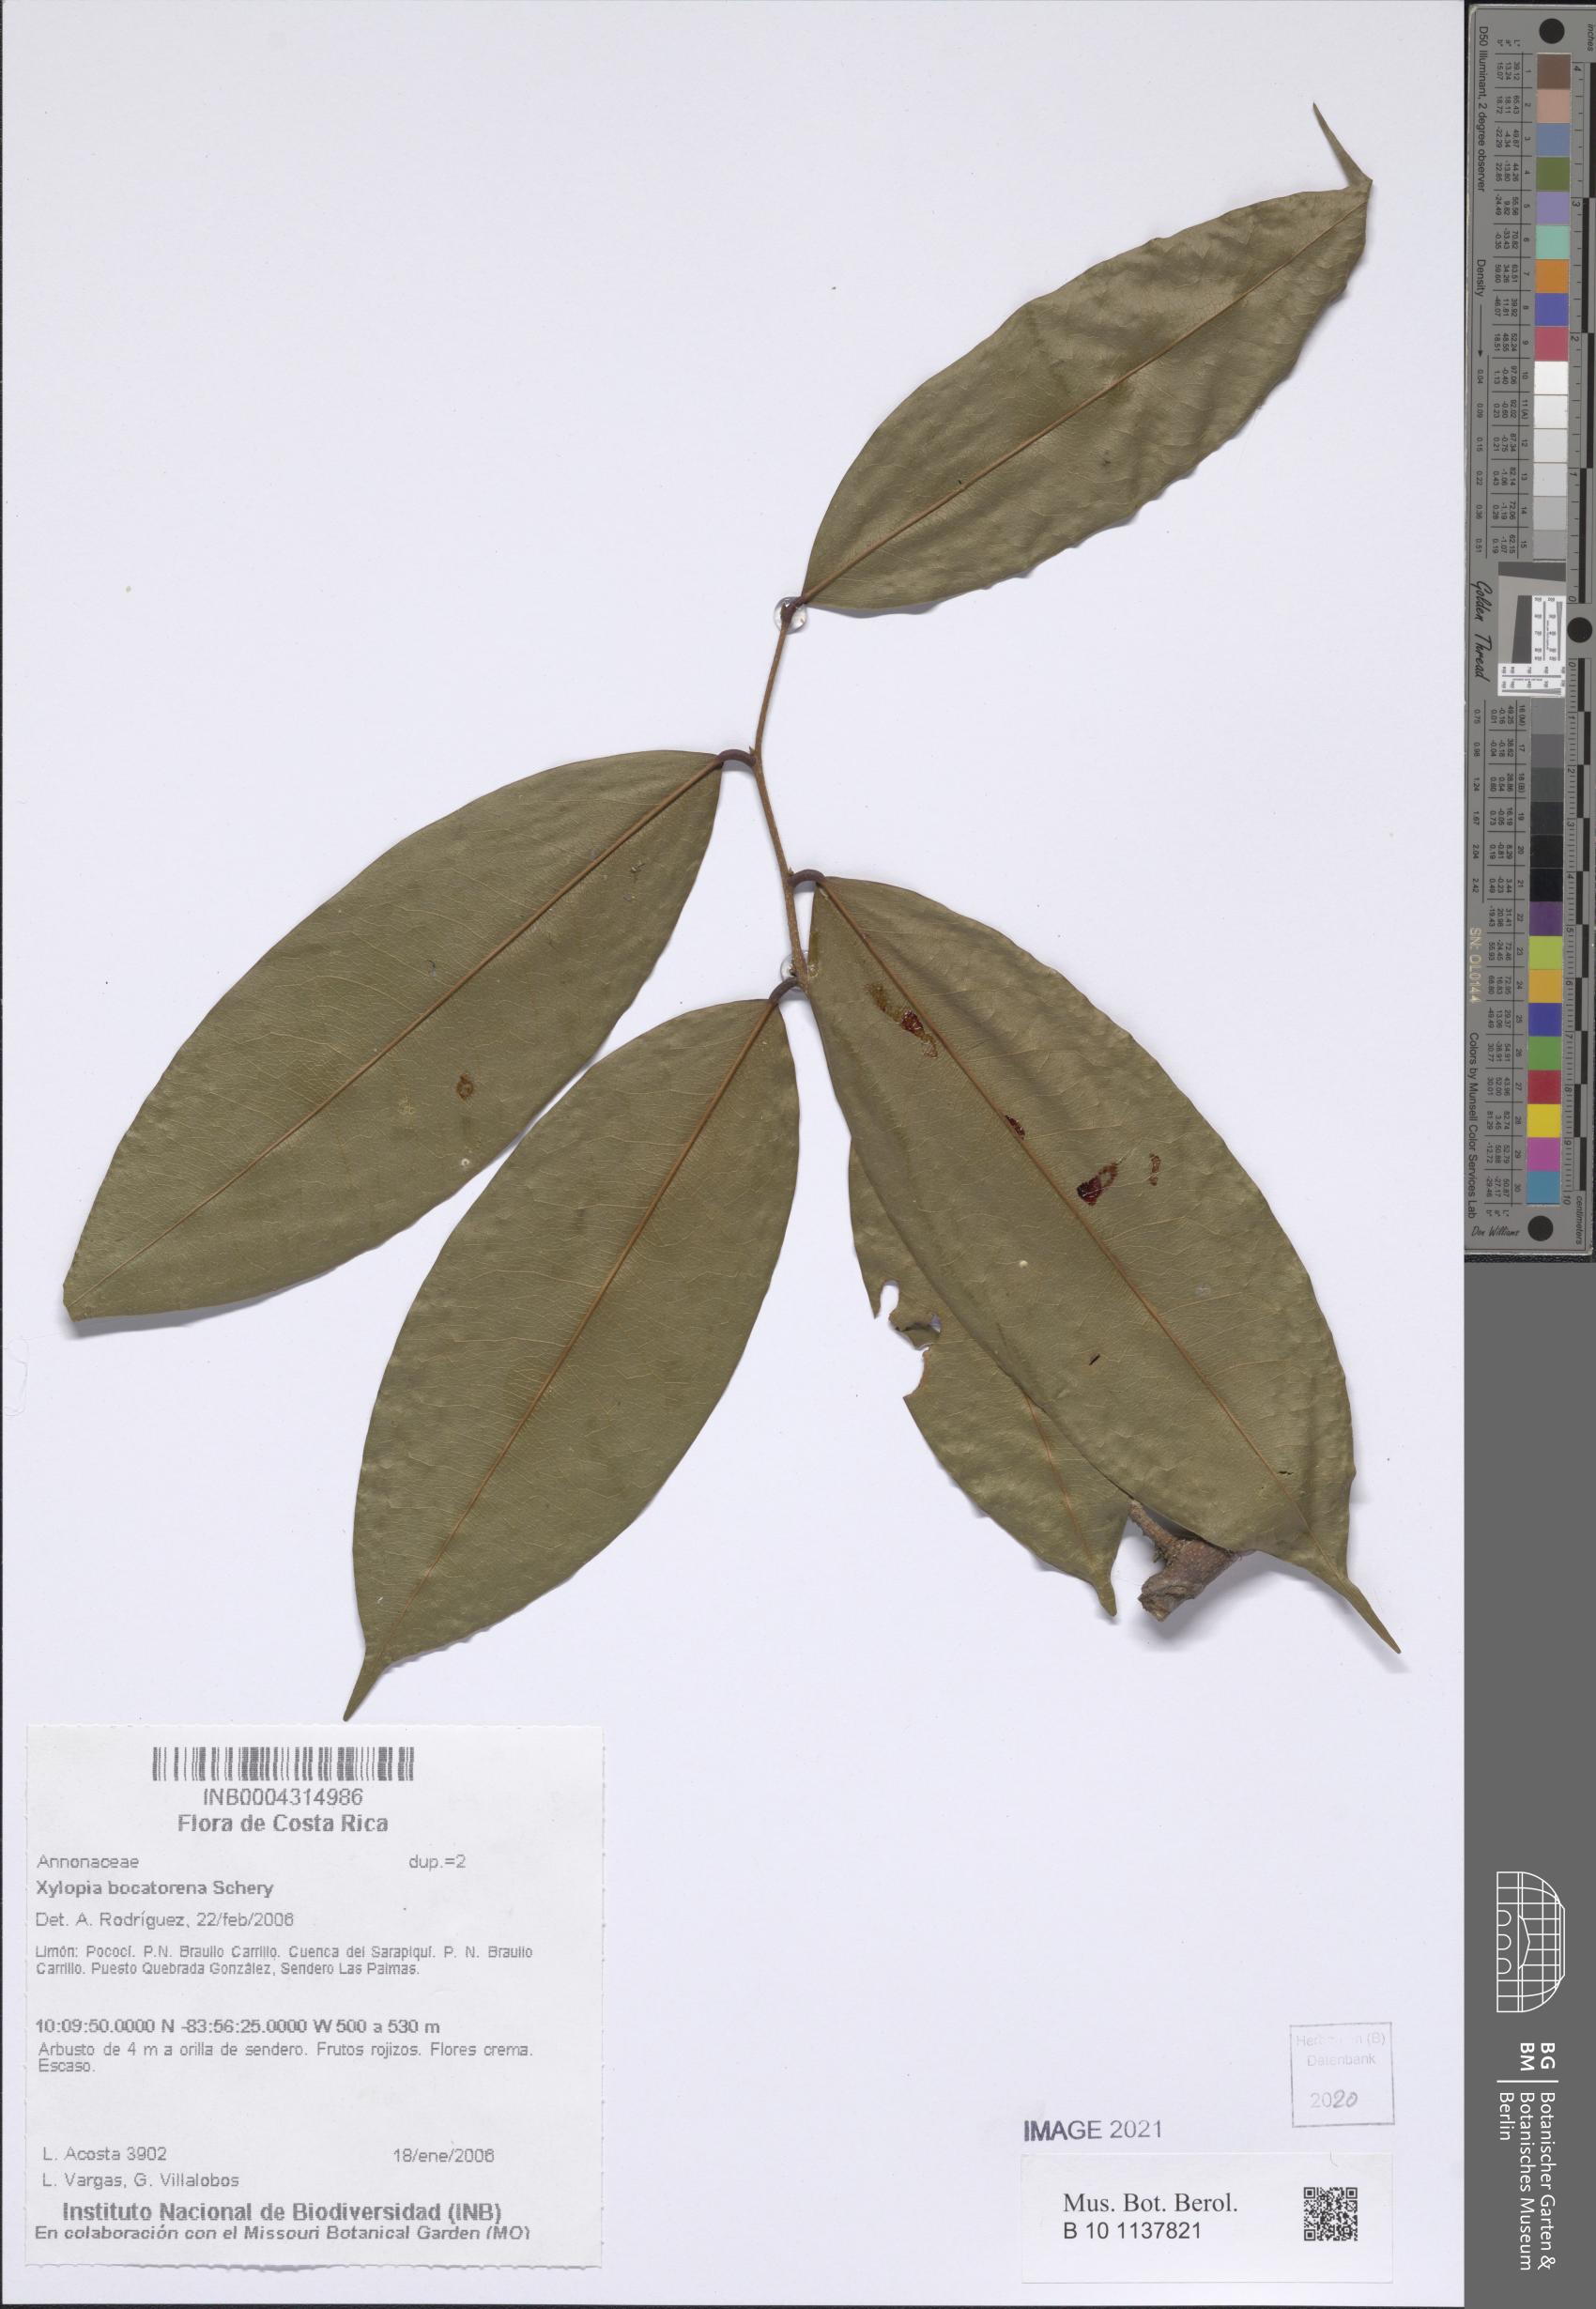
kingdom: Plantae
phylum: Tracheophyta
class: Magnoliopsida
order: Magnoliales
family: Annonaceae
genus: Xylopia
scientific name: Xylopia bocatorena
